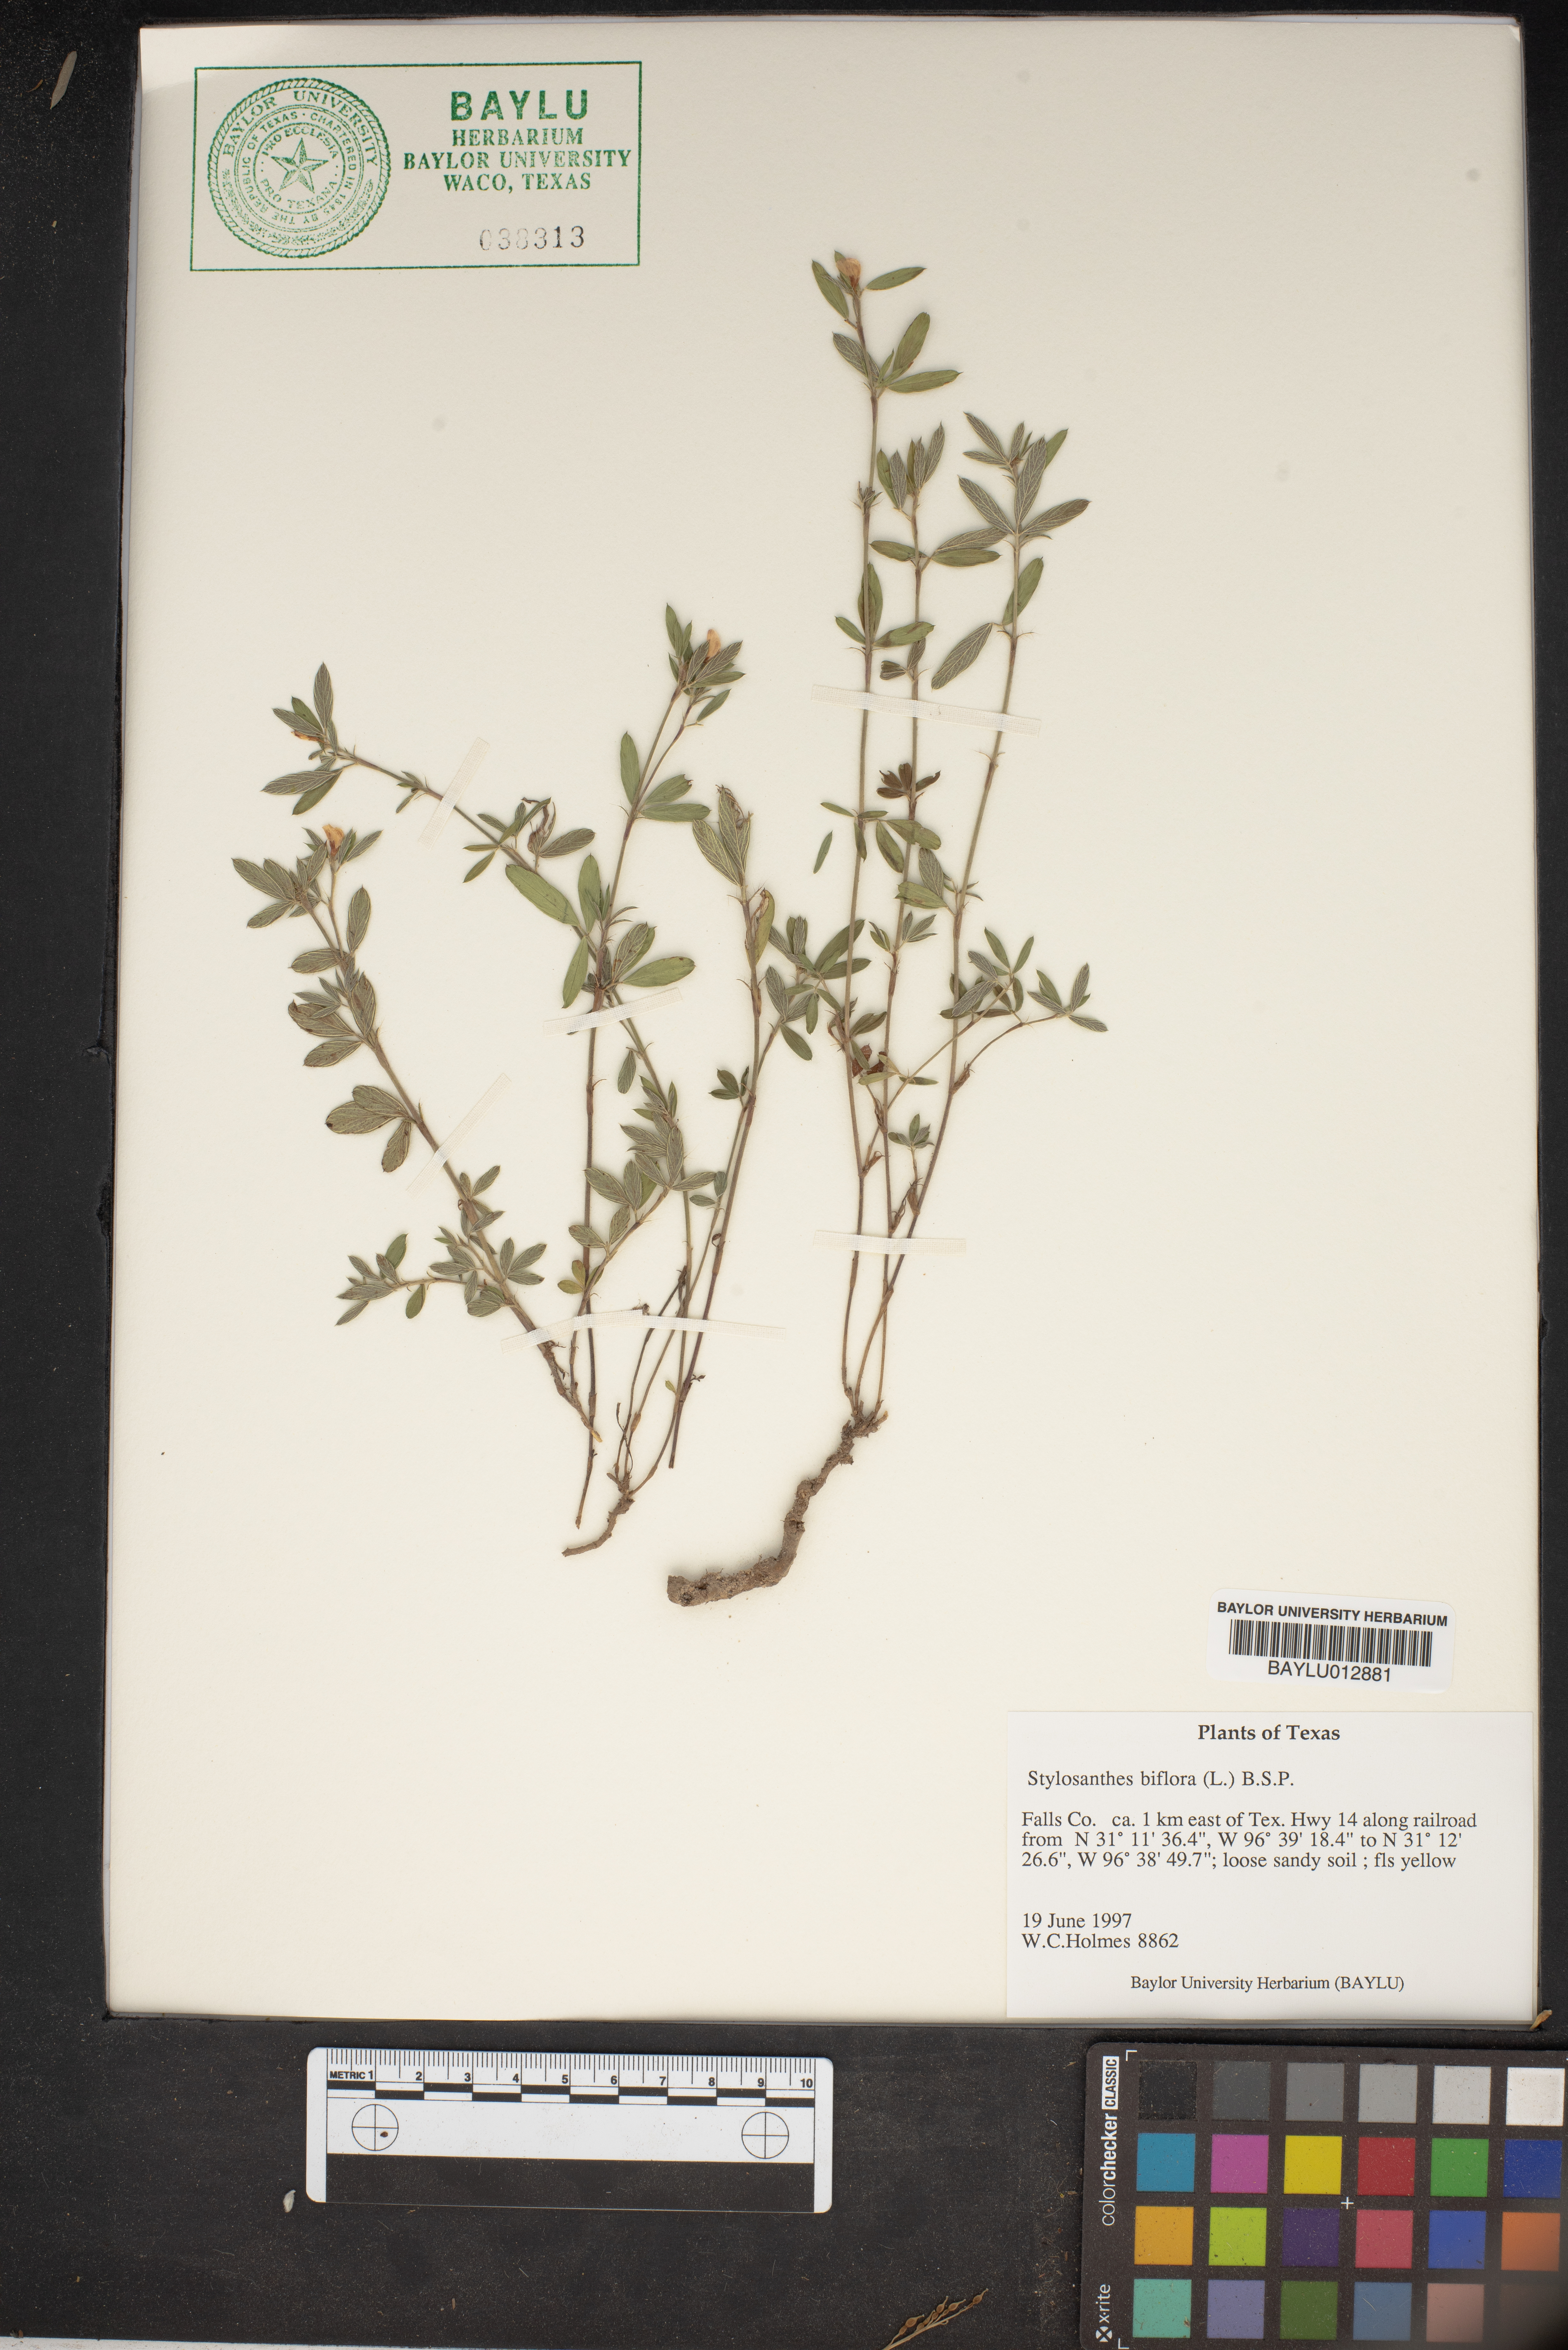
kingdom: Plantae
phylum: Tracheophyta
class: Magnoliopsida
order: Fabales
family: Fabaceae
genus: Stylosanthes
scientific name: Stylosanthes biflora
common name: Two-flower pencil-flower
